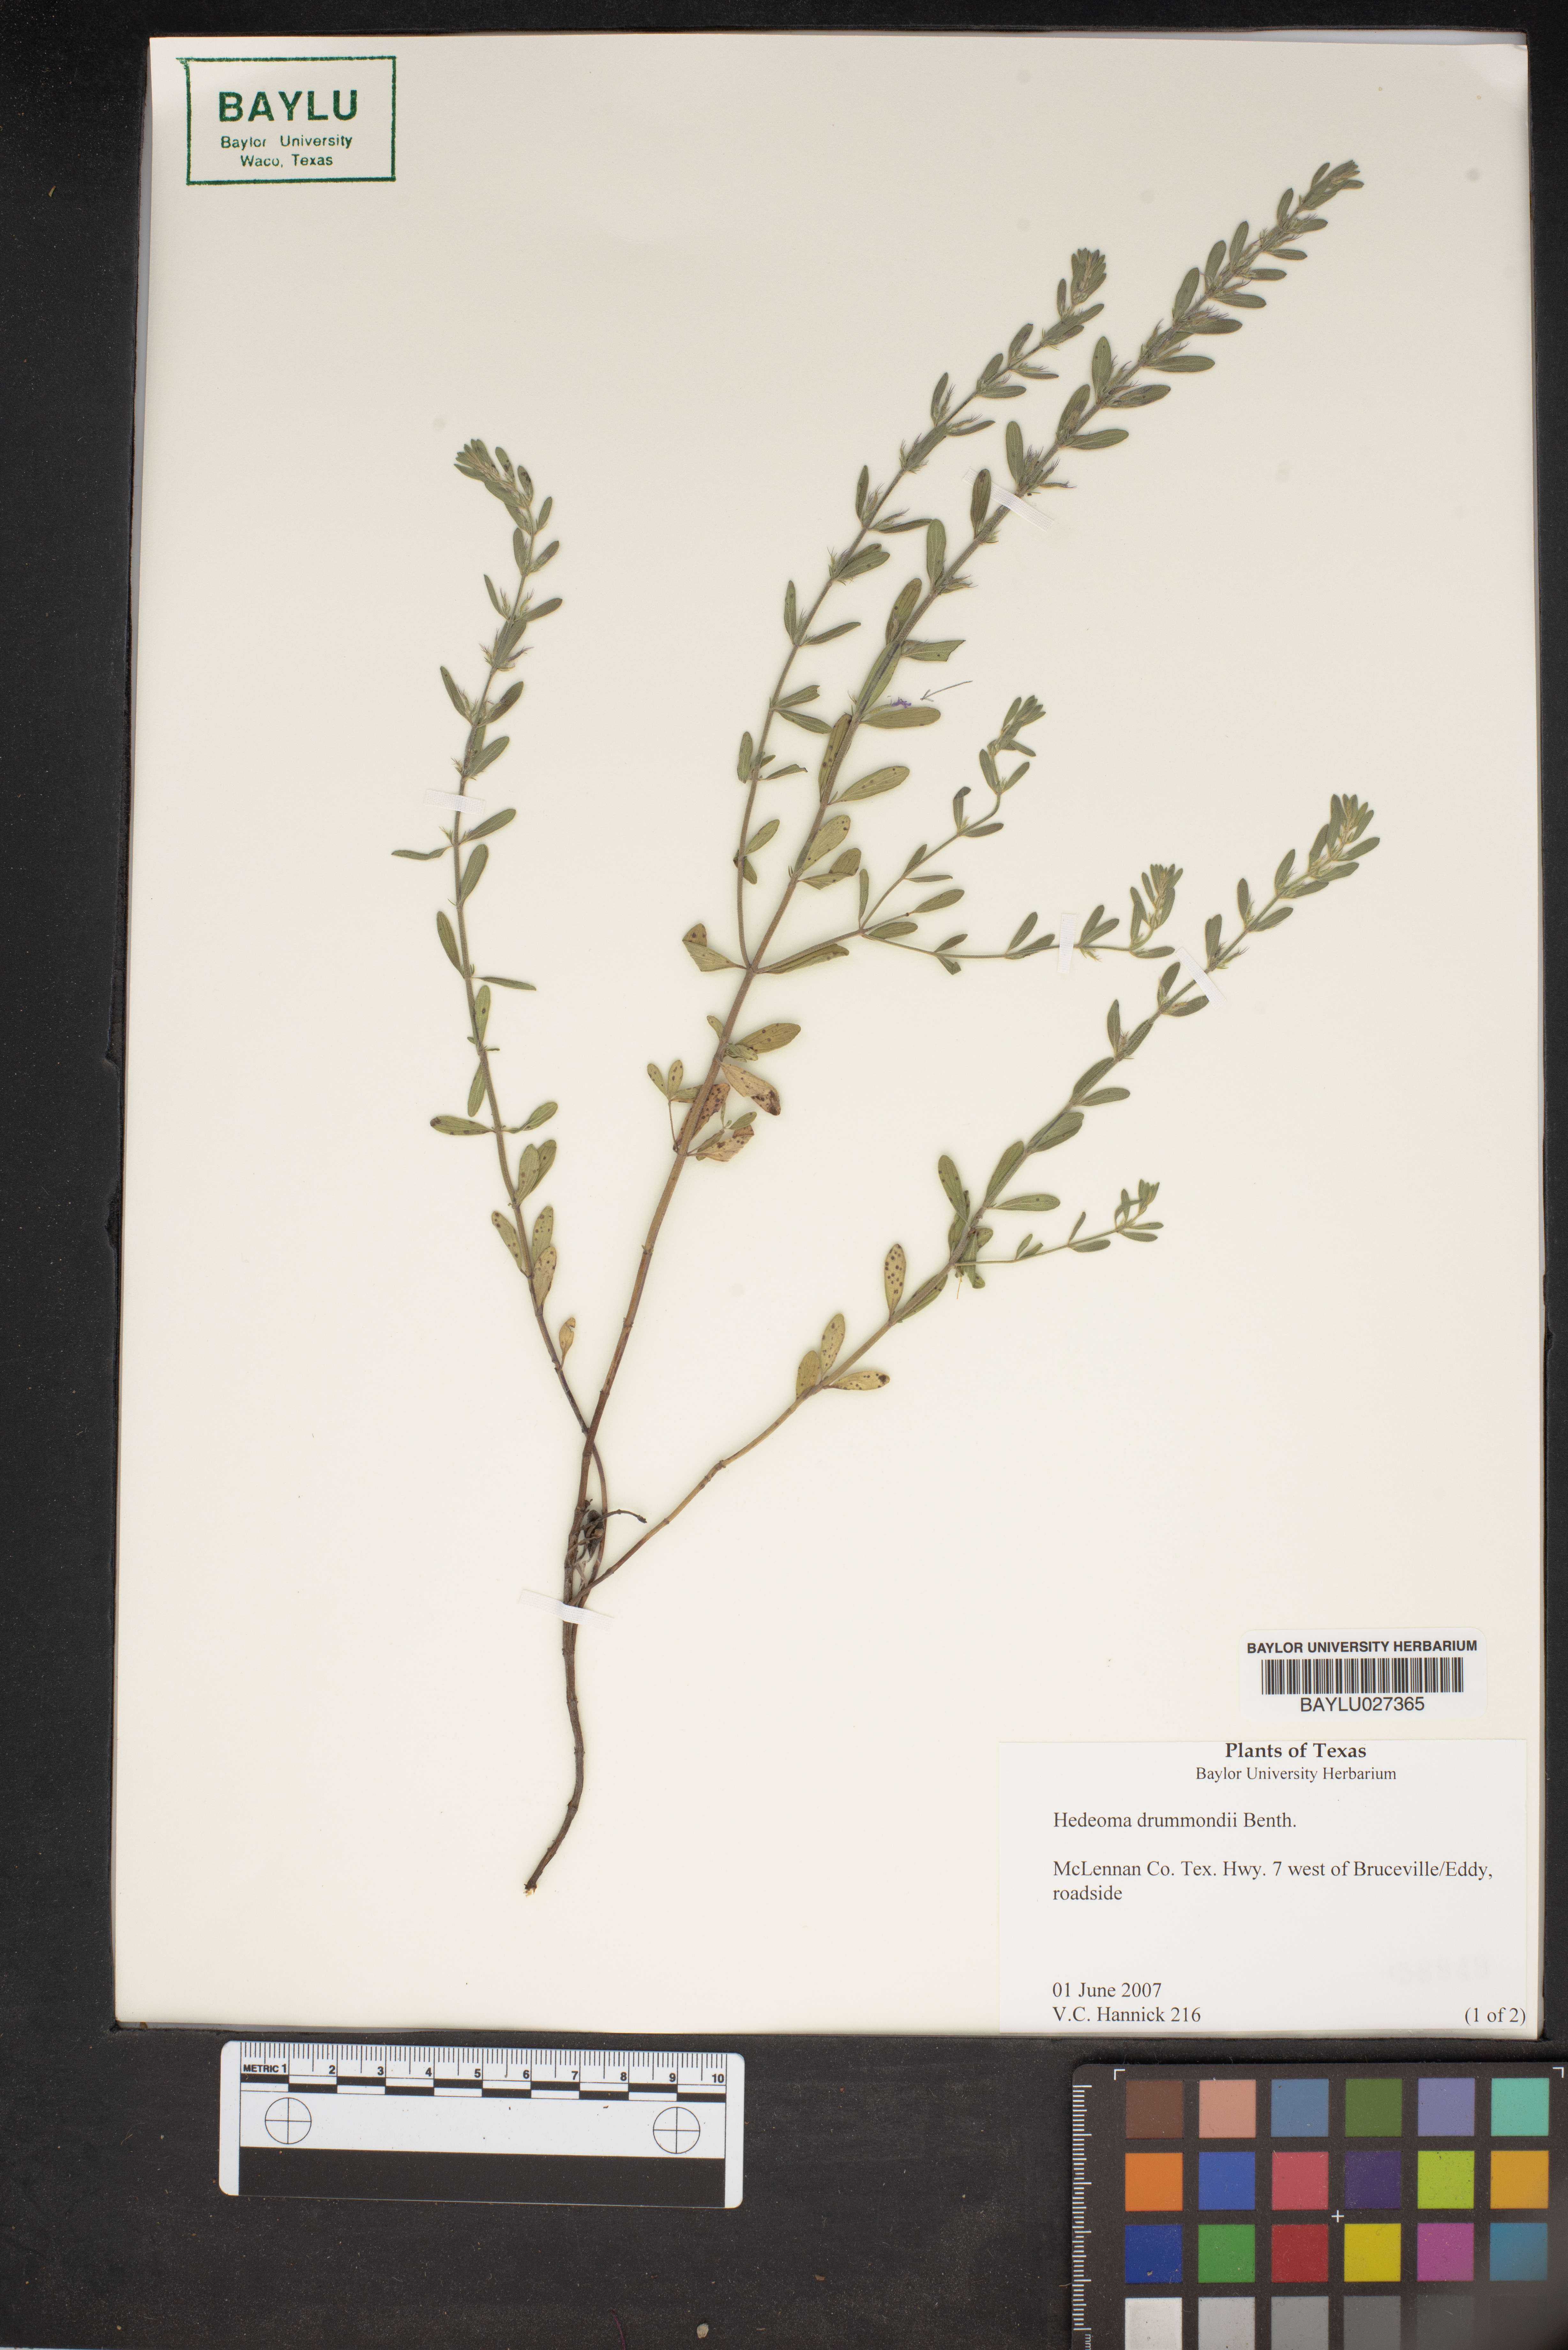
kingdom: Plantae
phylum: Tracheophyta
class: Magnoliopsida
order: Lamiales
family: Lamiaceae
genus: Hedeoma
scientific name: Hedeoma drummondii
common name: New mexico pennyroyal
